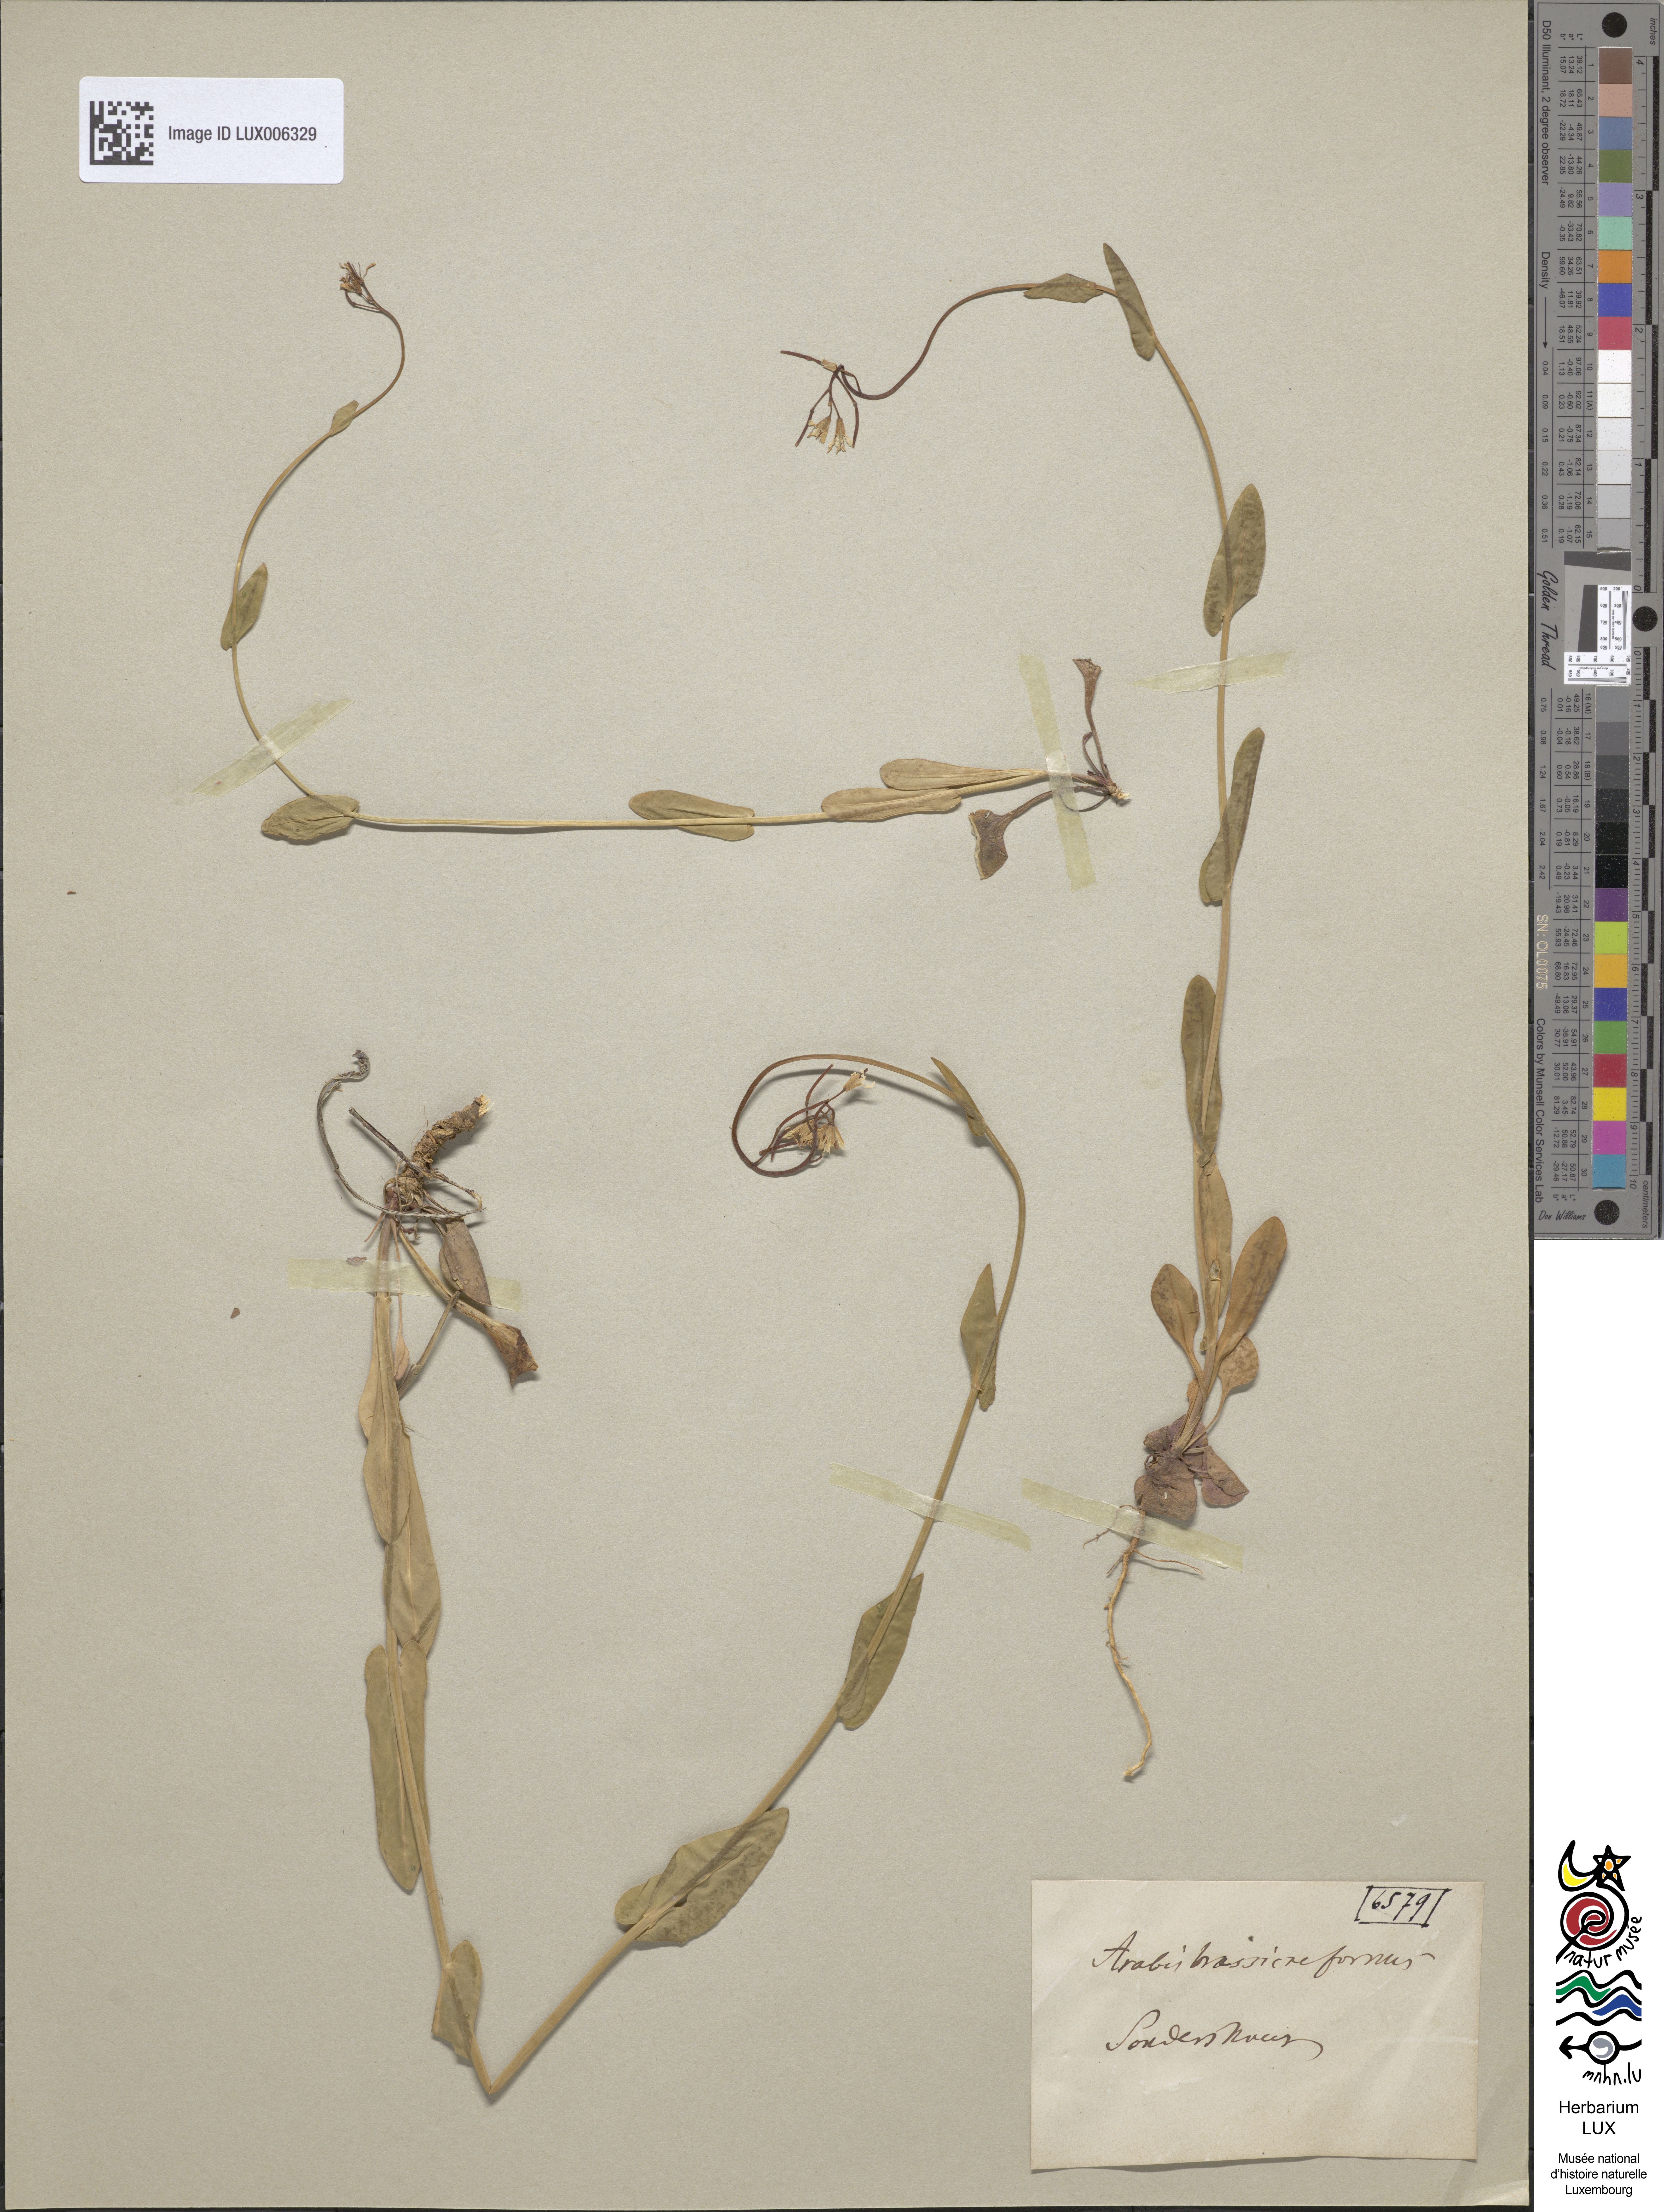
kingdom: Plantae
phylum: Tracheophyta
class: Magnoliopsida
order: Brassicales
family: Brassicaceae
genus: Fourraea
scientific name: Fourraea alpina
